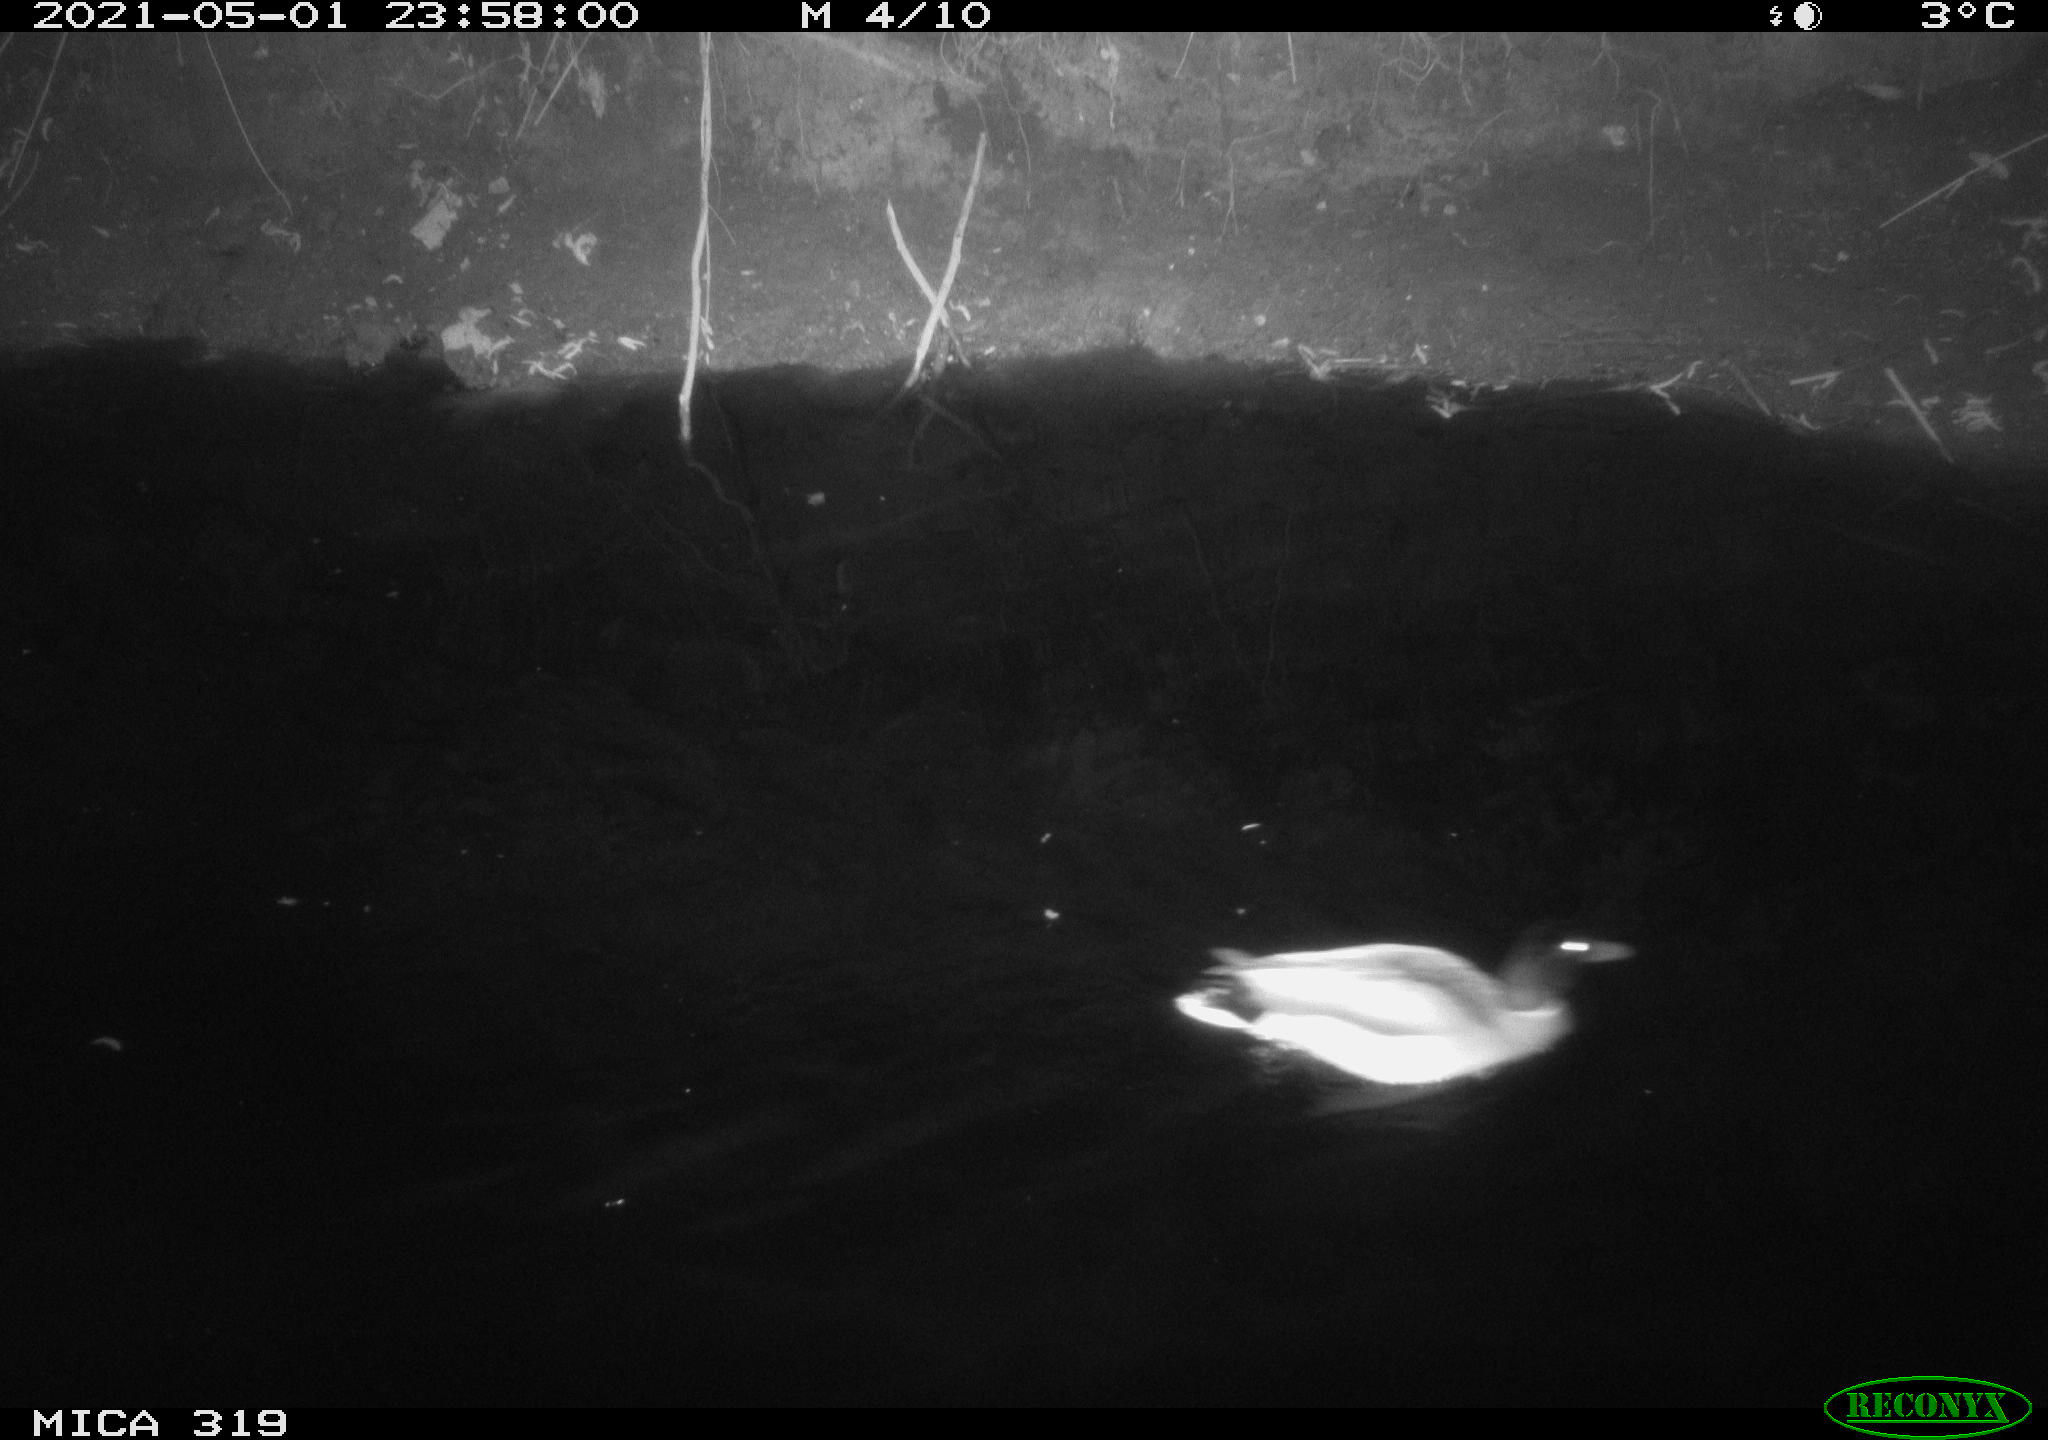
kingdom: Animalia
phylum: Chordata
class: Aves
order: Anseriformes
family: Anatidae
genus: Anas
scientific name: Anas platyrhynchos
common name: Mallard
